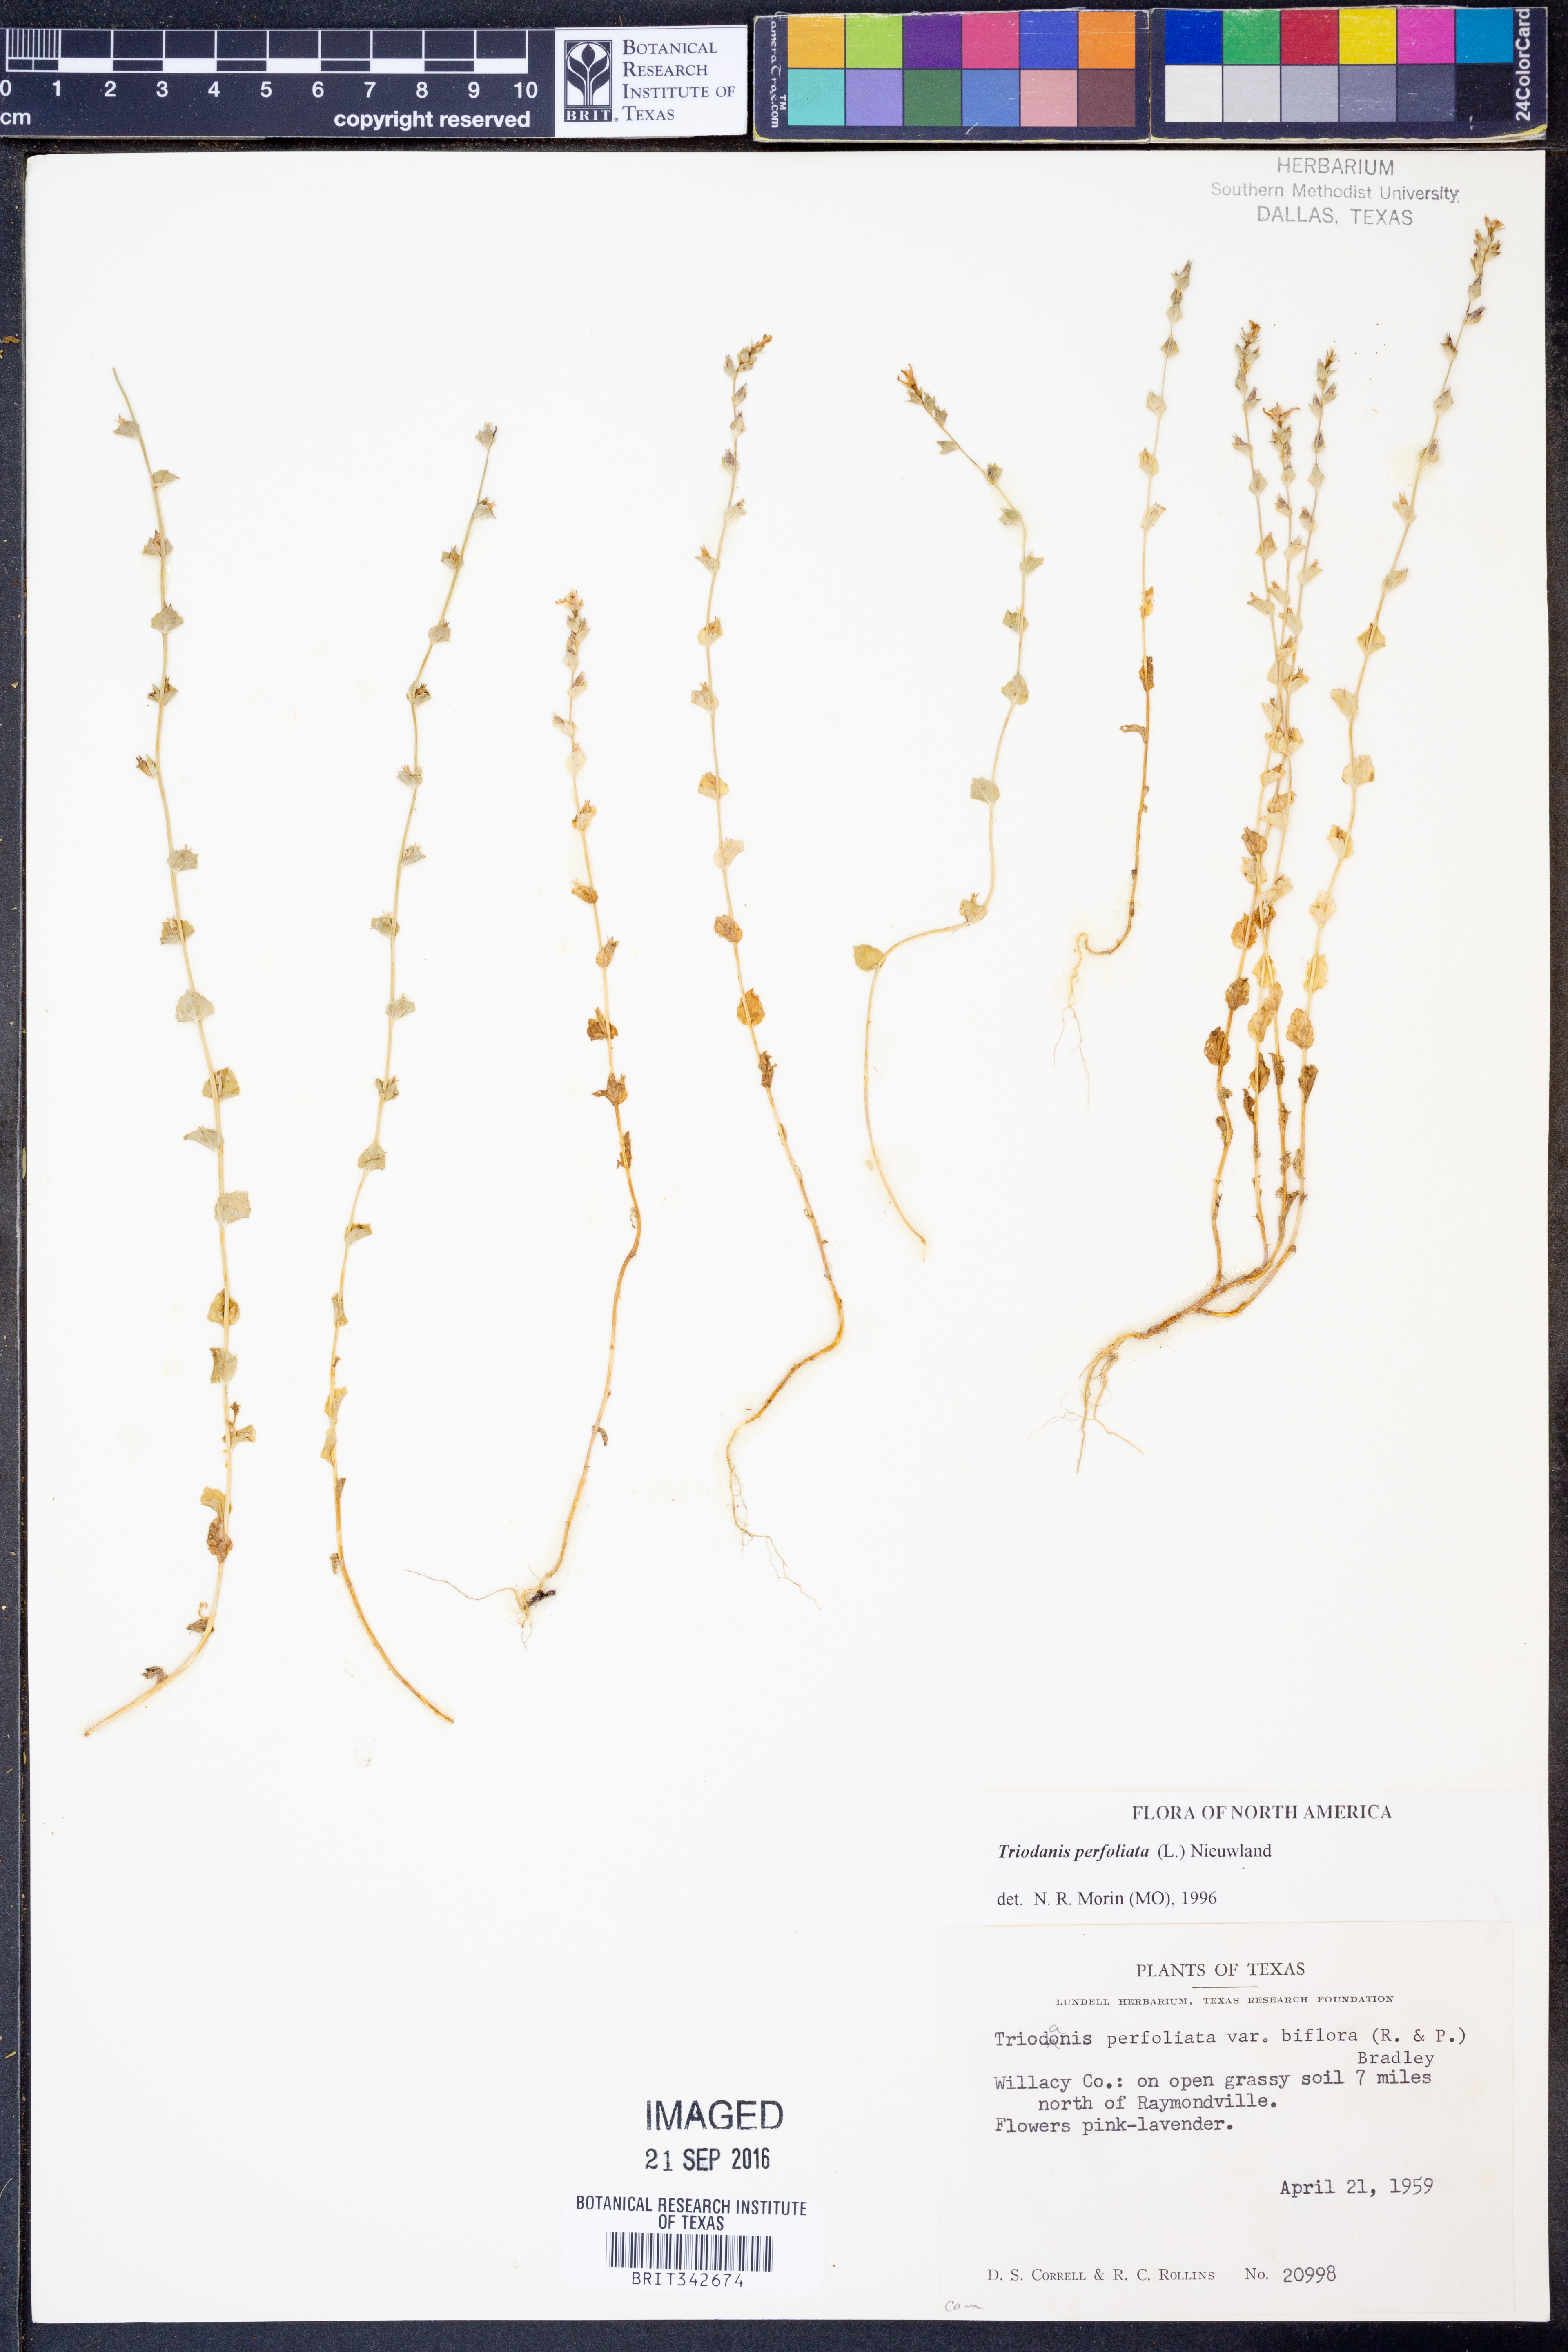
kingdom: Plantae
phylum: Tracheophyta
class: Magnoliopsida
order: Asterales
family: Campanulaceae
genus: Triodanis
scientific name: Triodanis perfoliata
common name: Clasping venus' looking-glass
